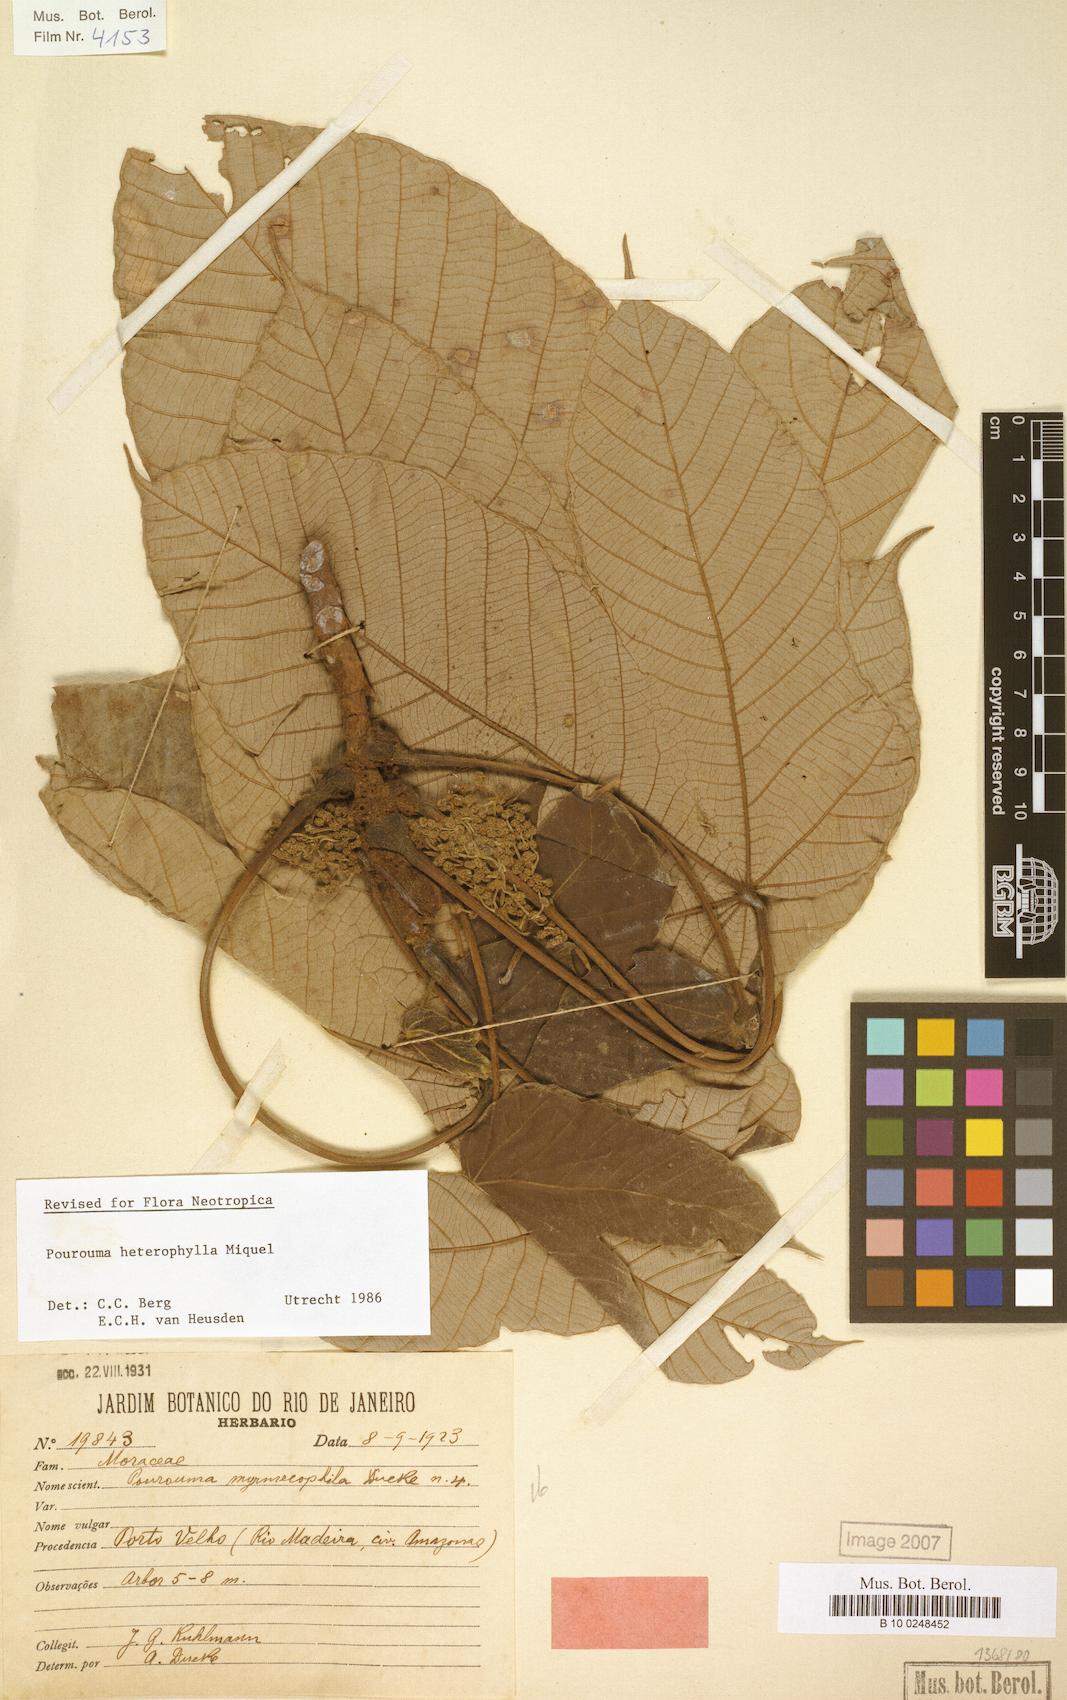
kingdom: Plantae
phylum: Tracheophyta
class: Magnoliopsida
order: Rosales
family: Urticaceae
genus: Pourouma
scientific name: Pourouma guianensis
